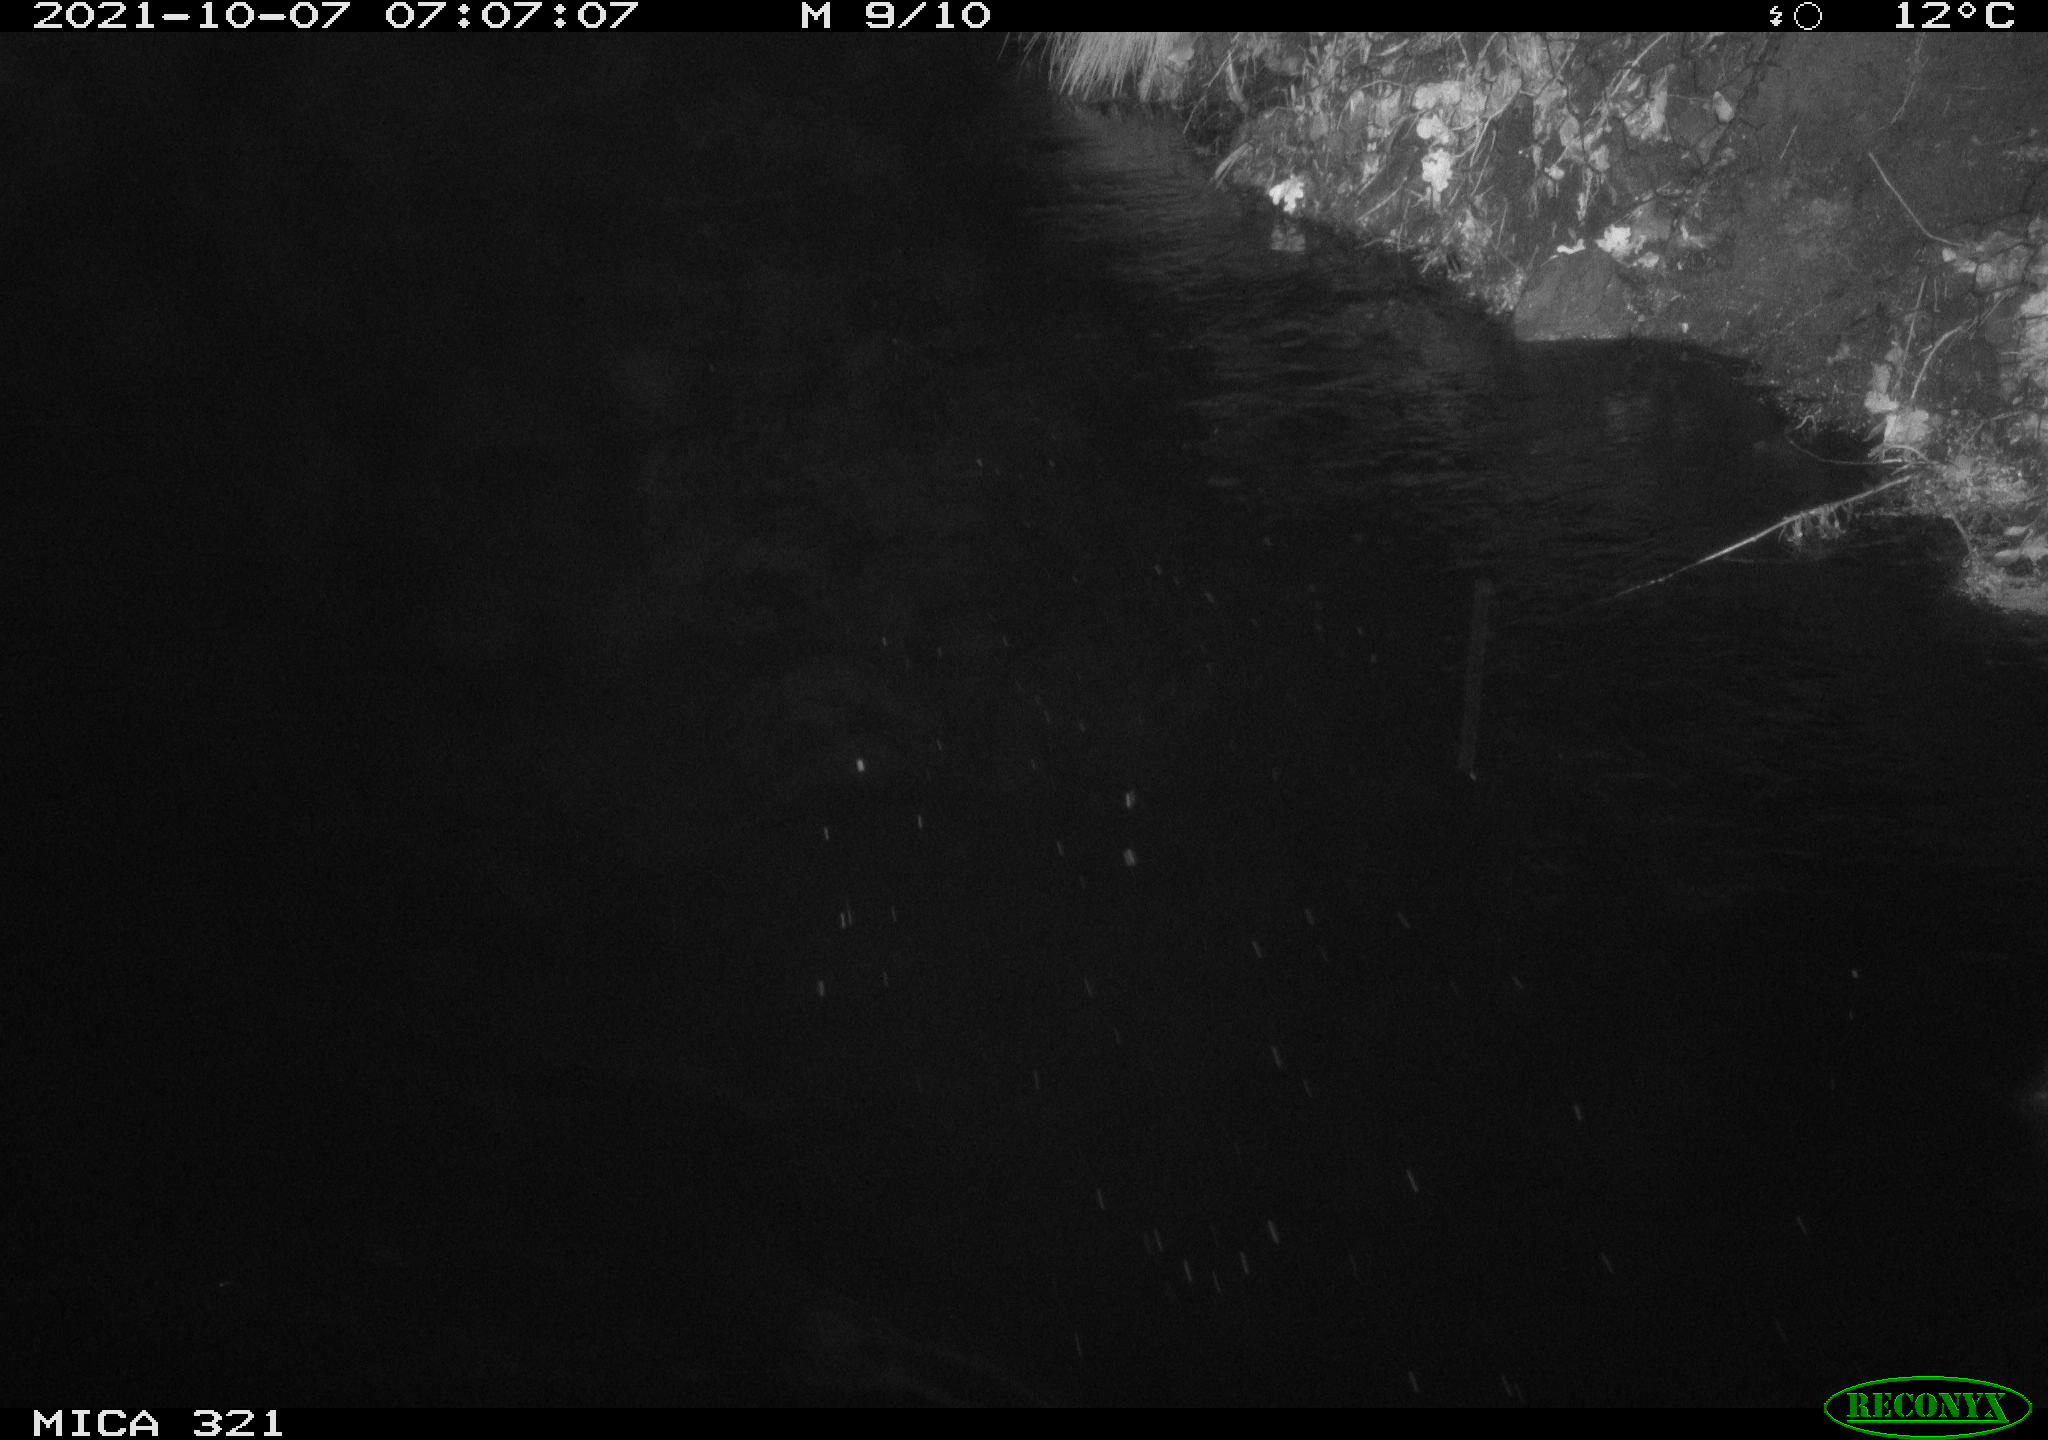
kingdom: Animalia
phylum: Chordata
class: Aves
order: Anseriformes
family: Anatidae
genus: Anas
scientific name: Anas platyrhynchos
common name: Mallard
